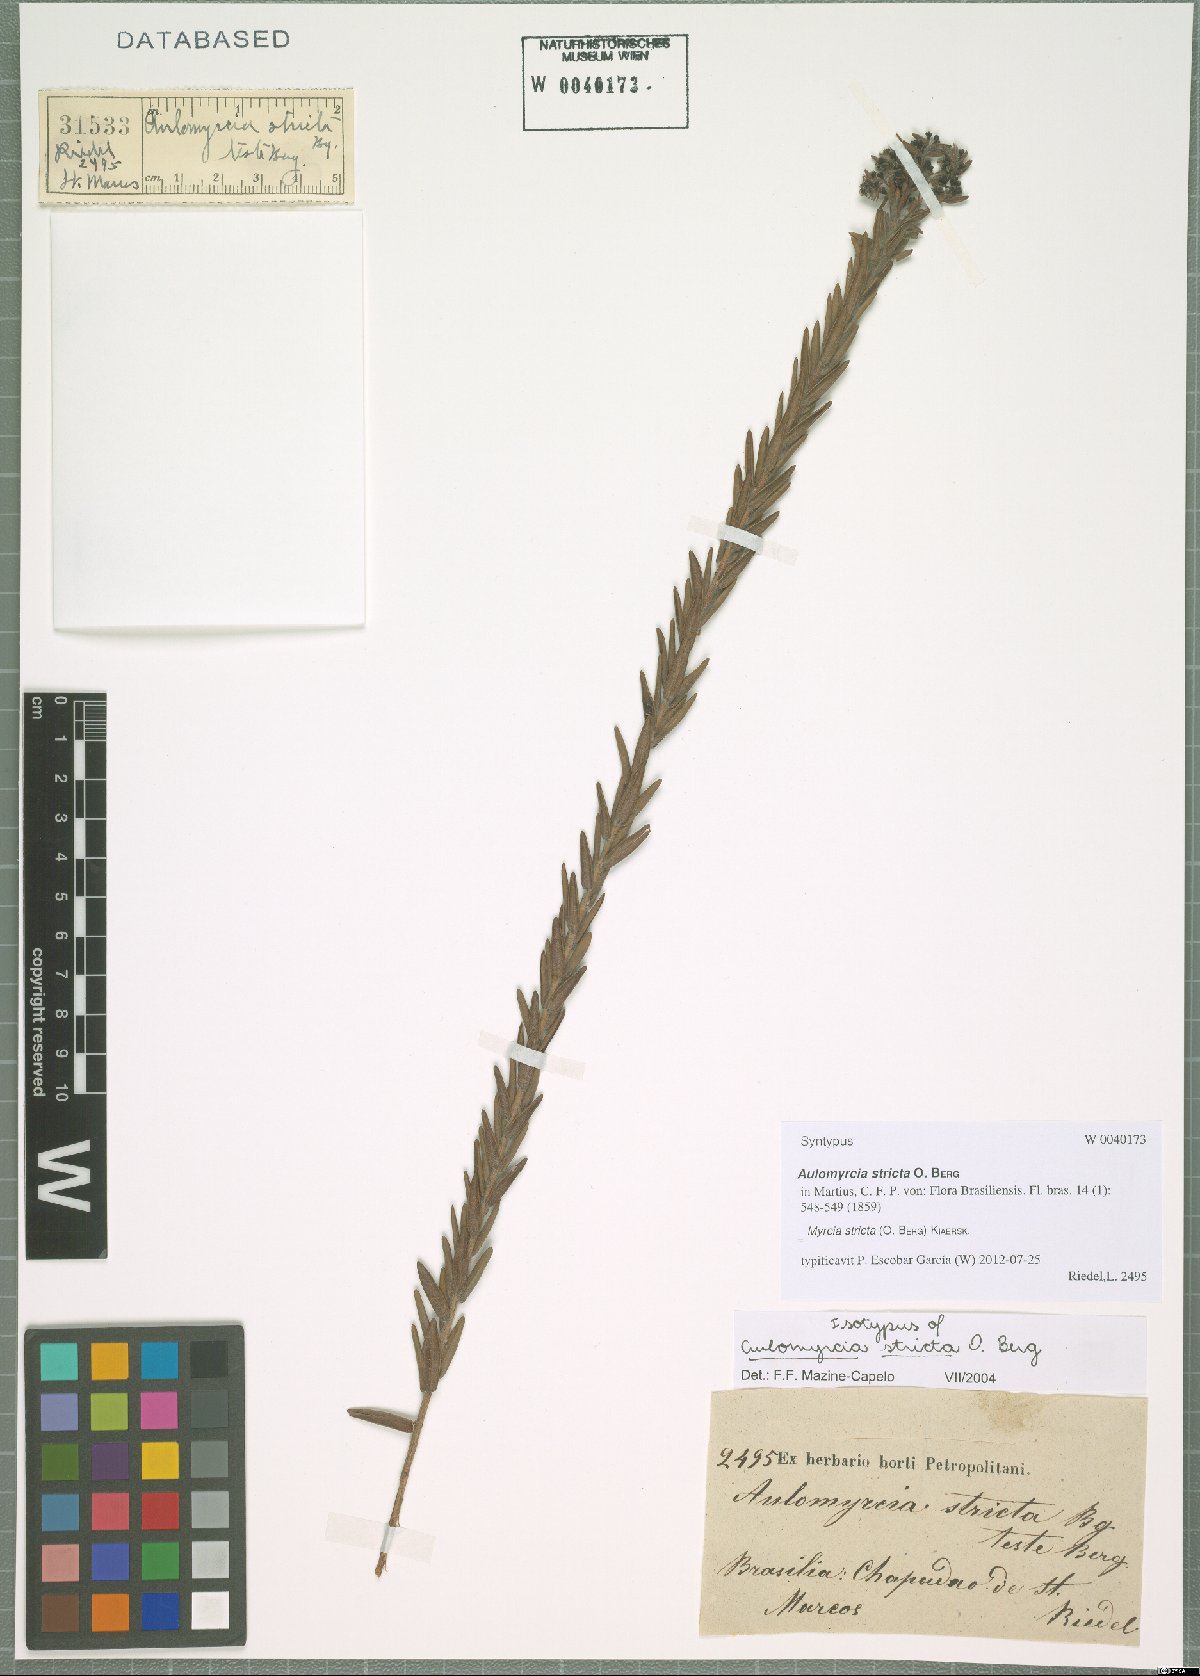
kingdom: Plantae
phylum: Tracheophyta
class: Magnoliopsida
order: Myrtales
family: Myrtaceae
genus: Myrcia
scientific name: Myrcia stricta
